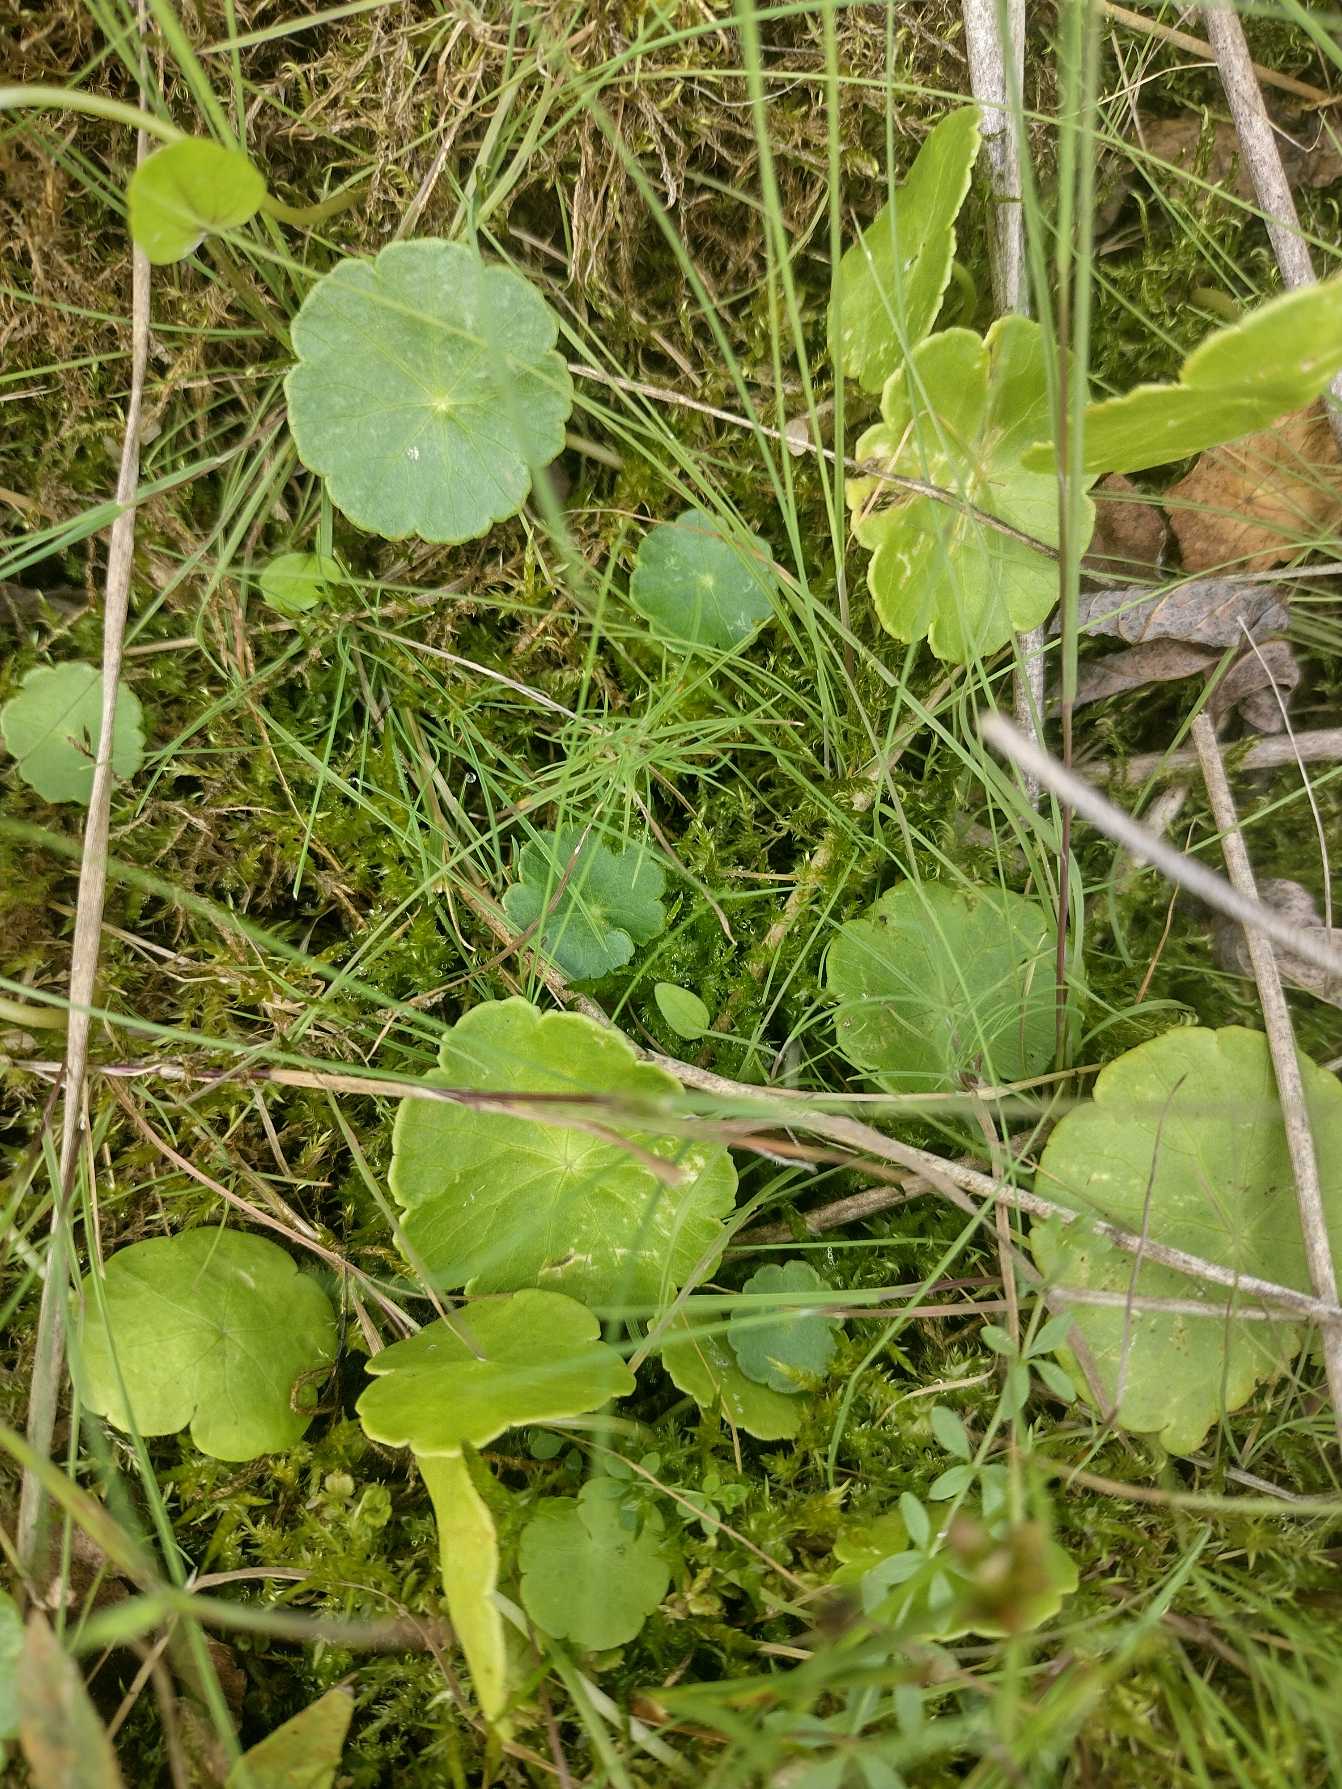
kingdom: Plantae
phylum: Tracheophyta
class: Magnoliopsida
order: Apiales
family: Araliaceae
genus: Hydrocotyle
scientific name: Hydrocotyle vulgaris
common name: Vandnavle
